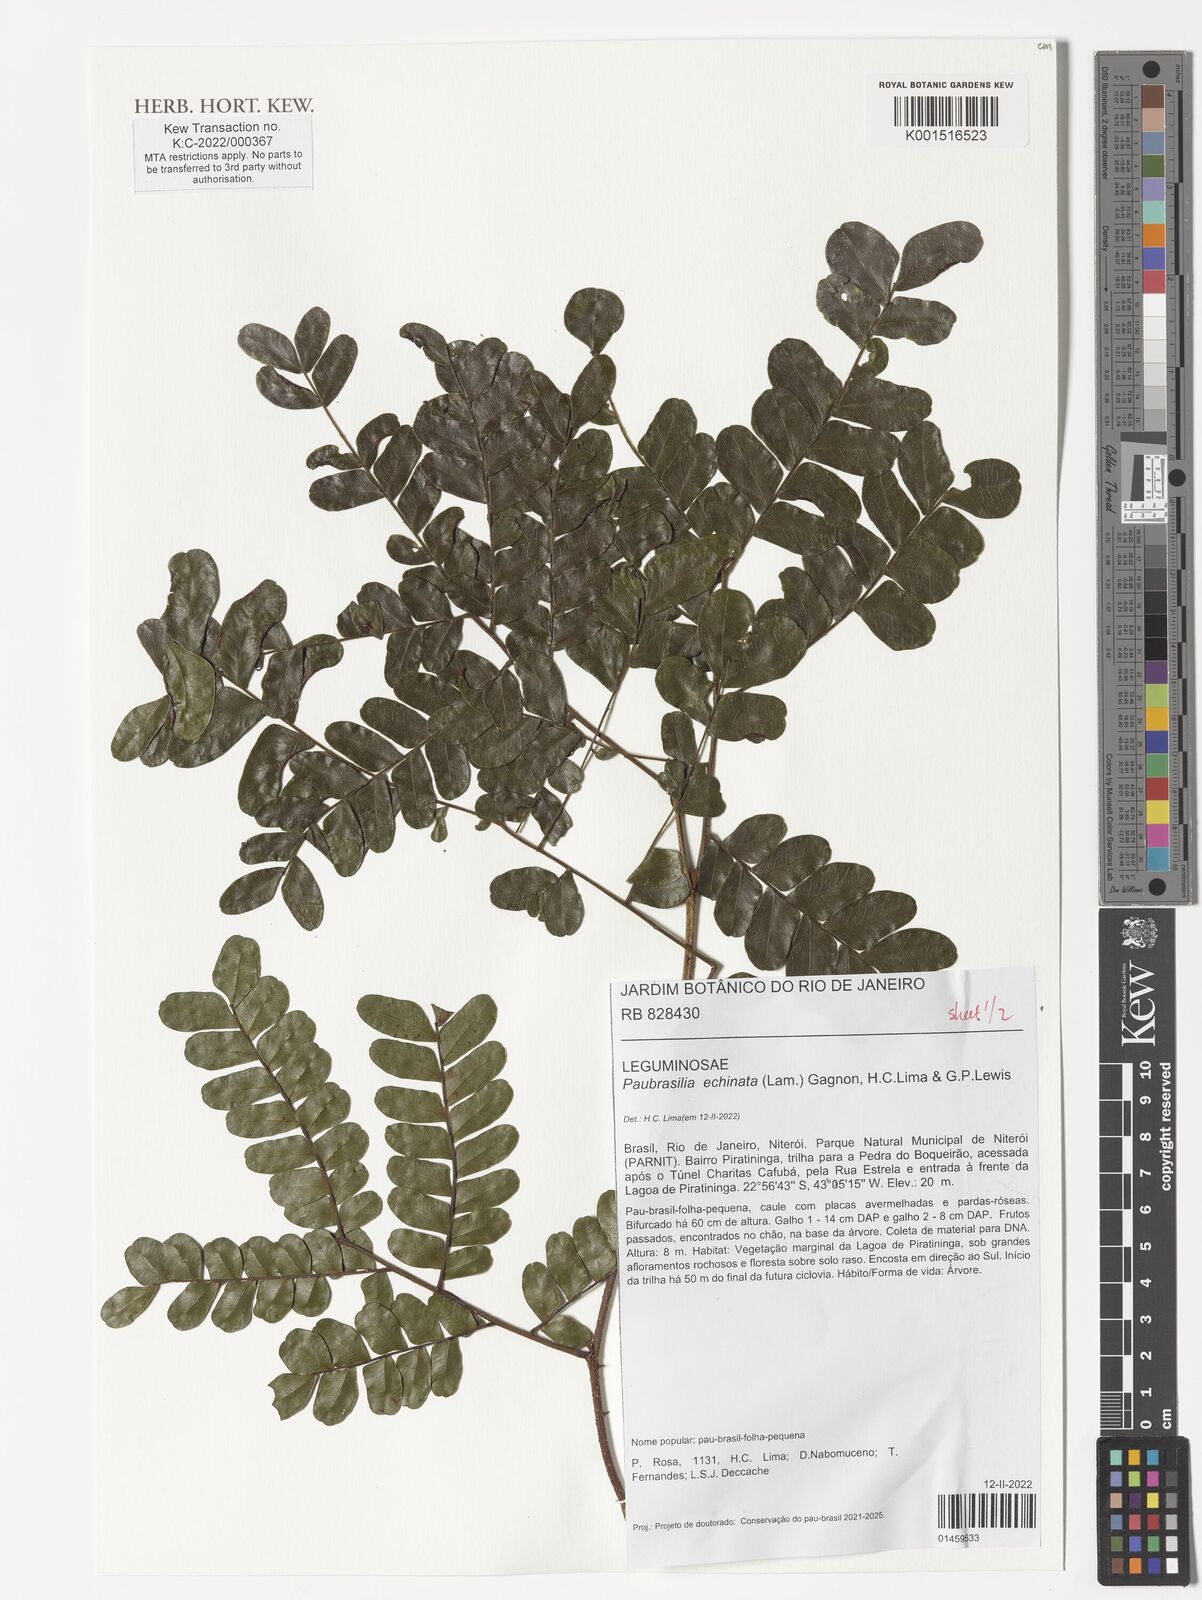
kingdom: Plantae
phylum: Tracheophyta
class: Magnoliopsida
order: Fabales
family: Fabaceae
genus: Paubrasilia
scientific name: Paubrasilia echinata
